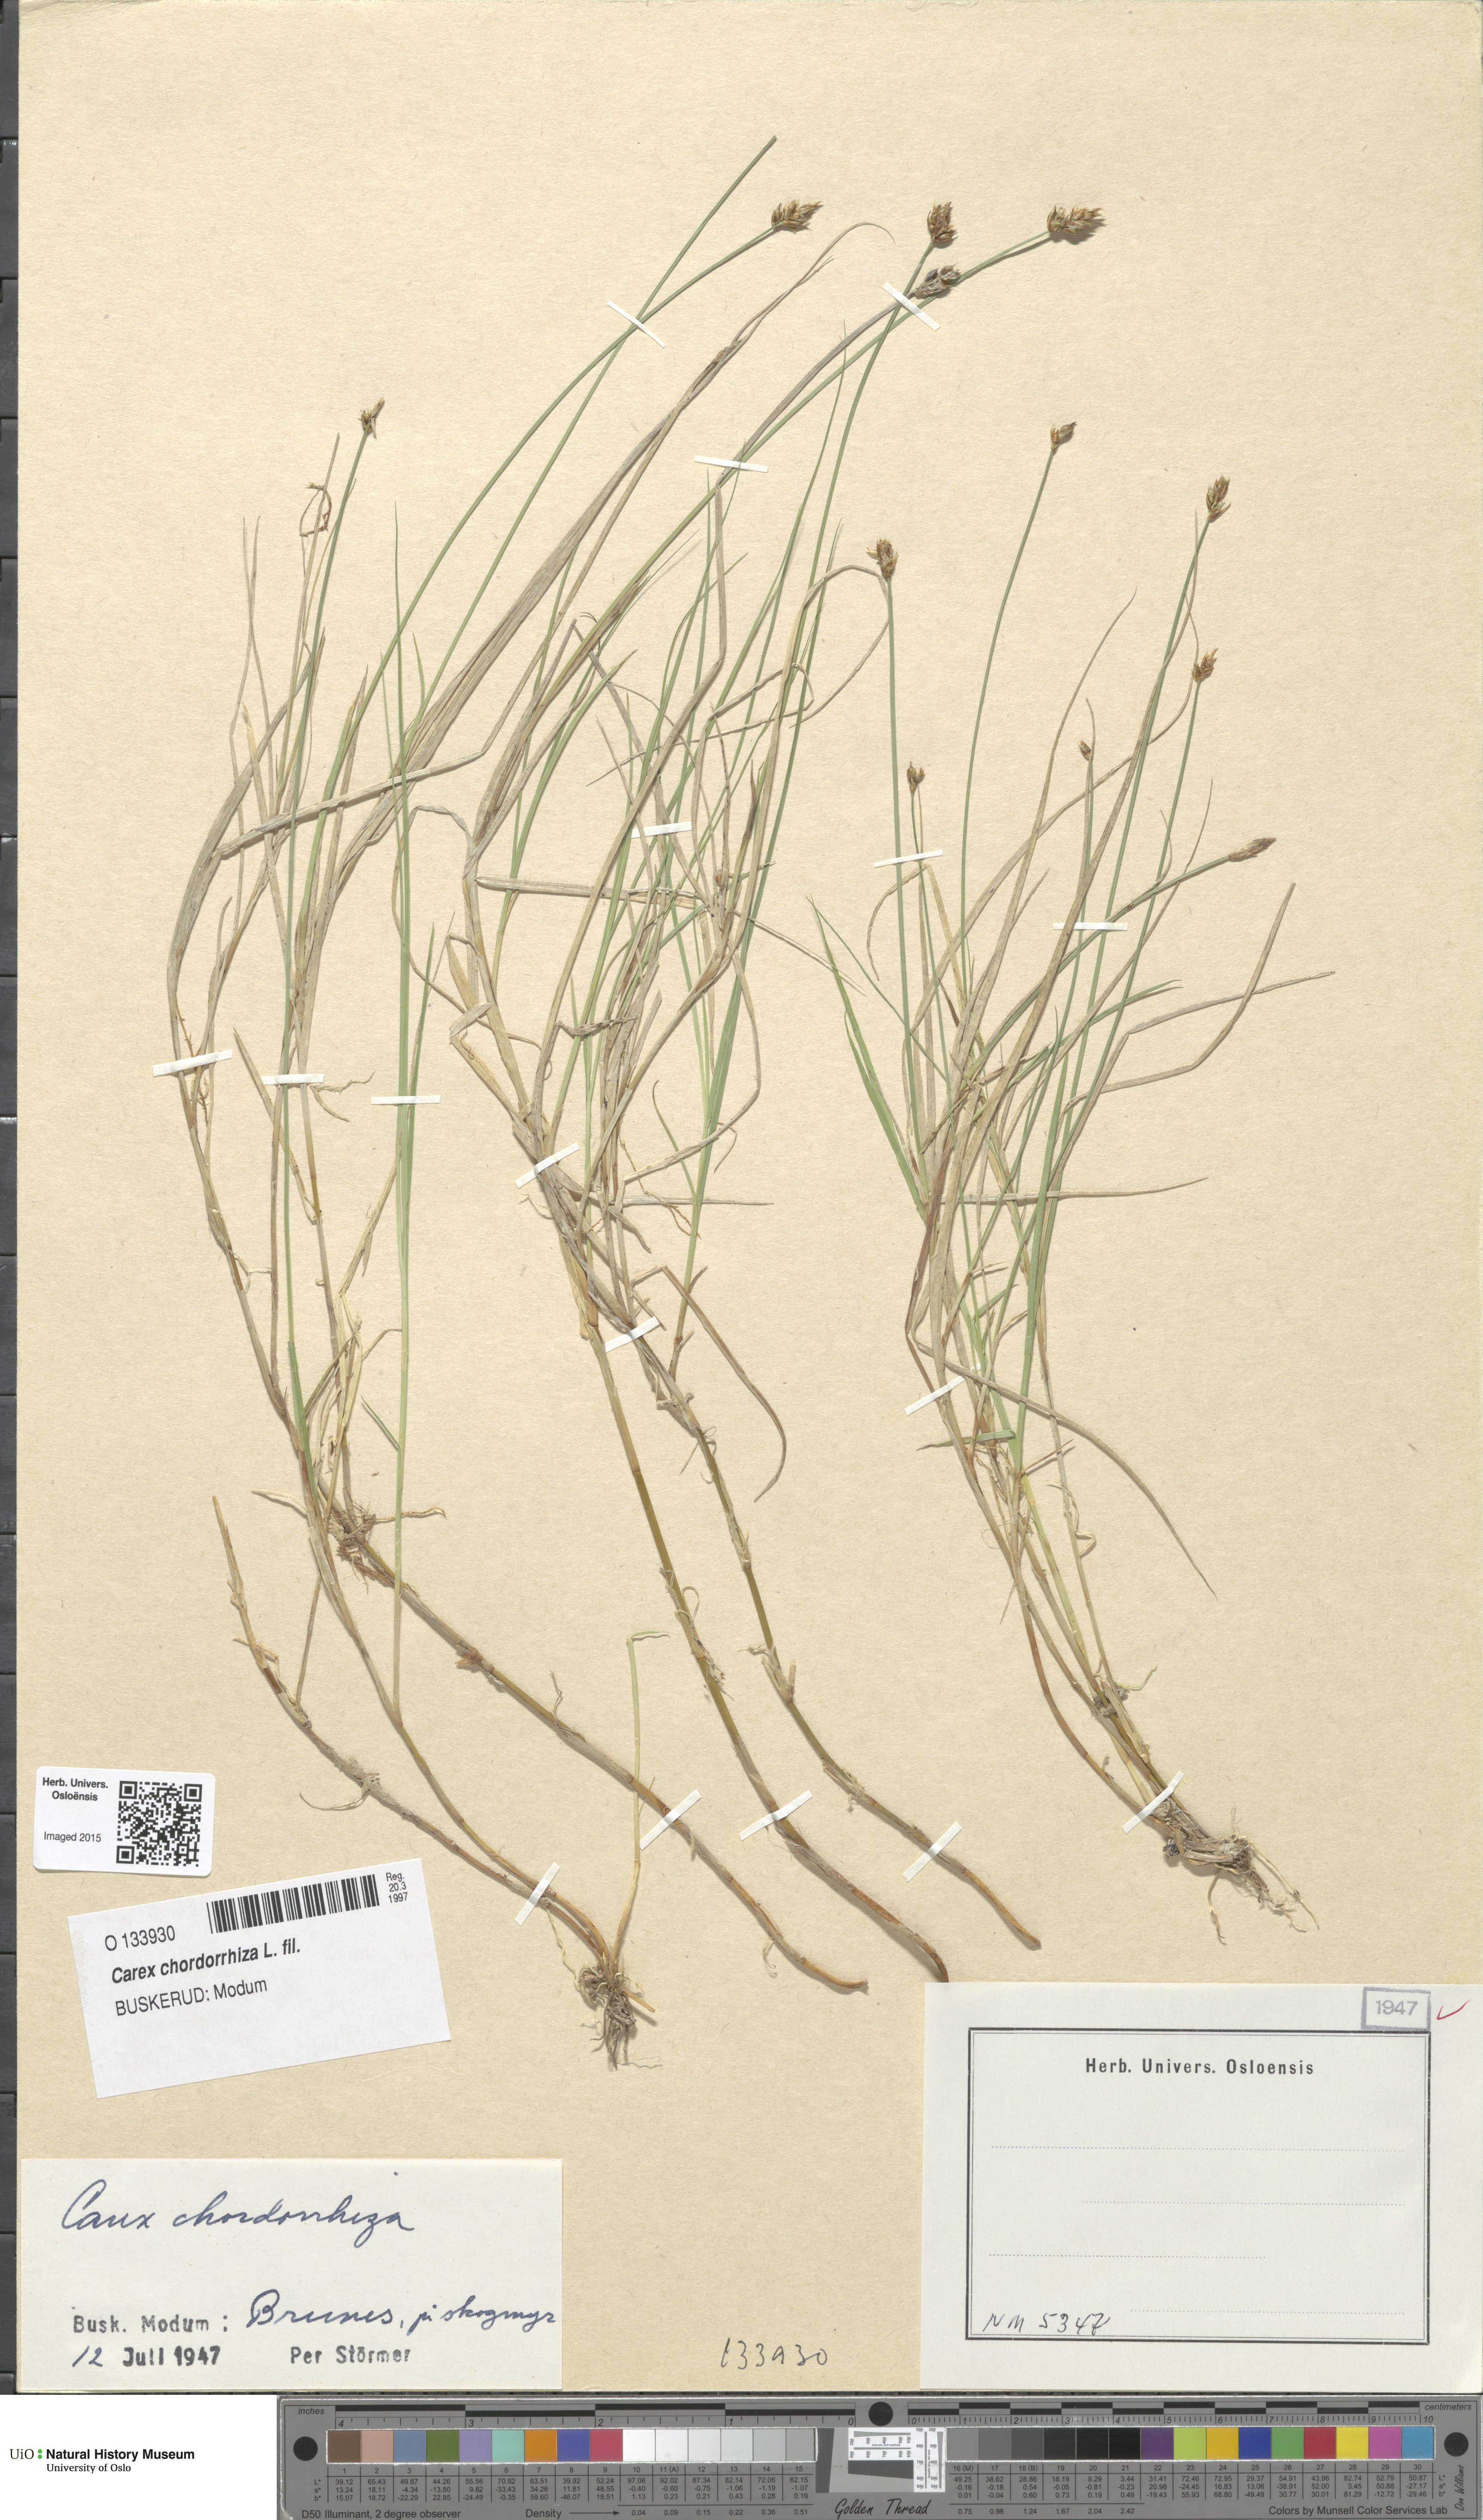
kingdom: Plantae
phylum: Tracheophyta
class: Liliopsida
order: Poales
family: Cyperaceae
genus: Carex
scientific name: Carex chordorrhiza
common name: String sedge
